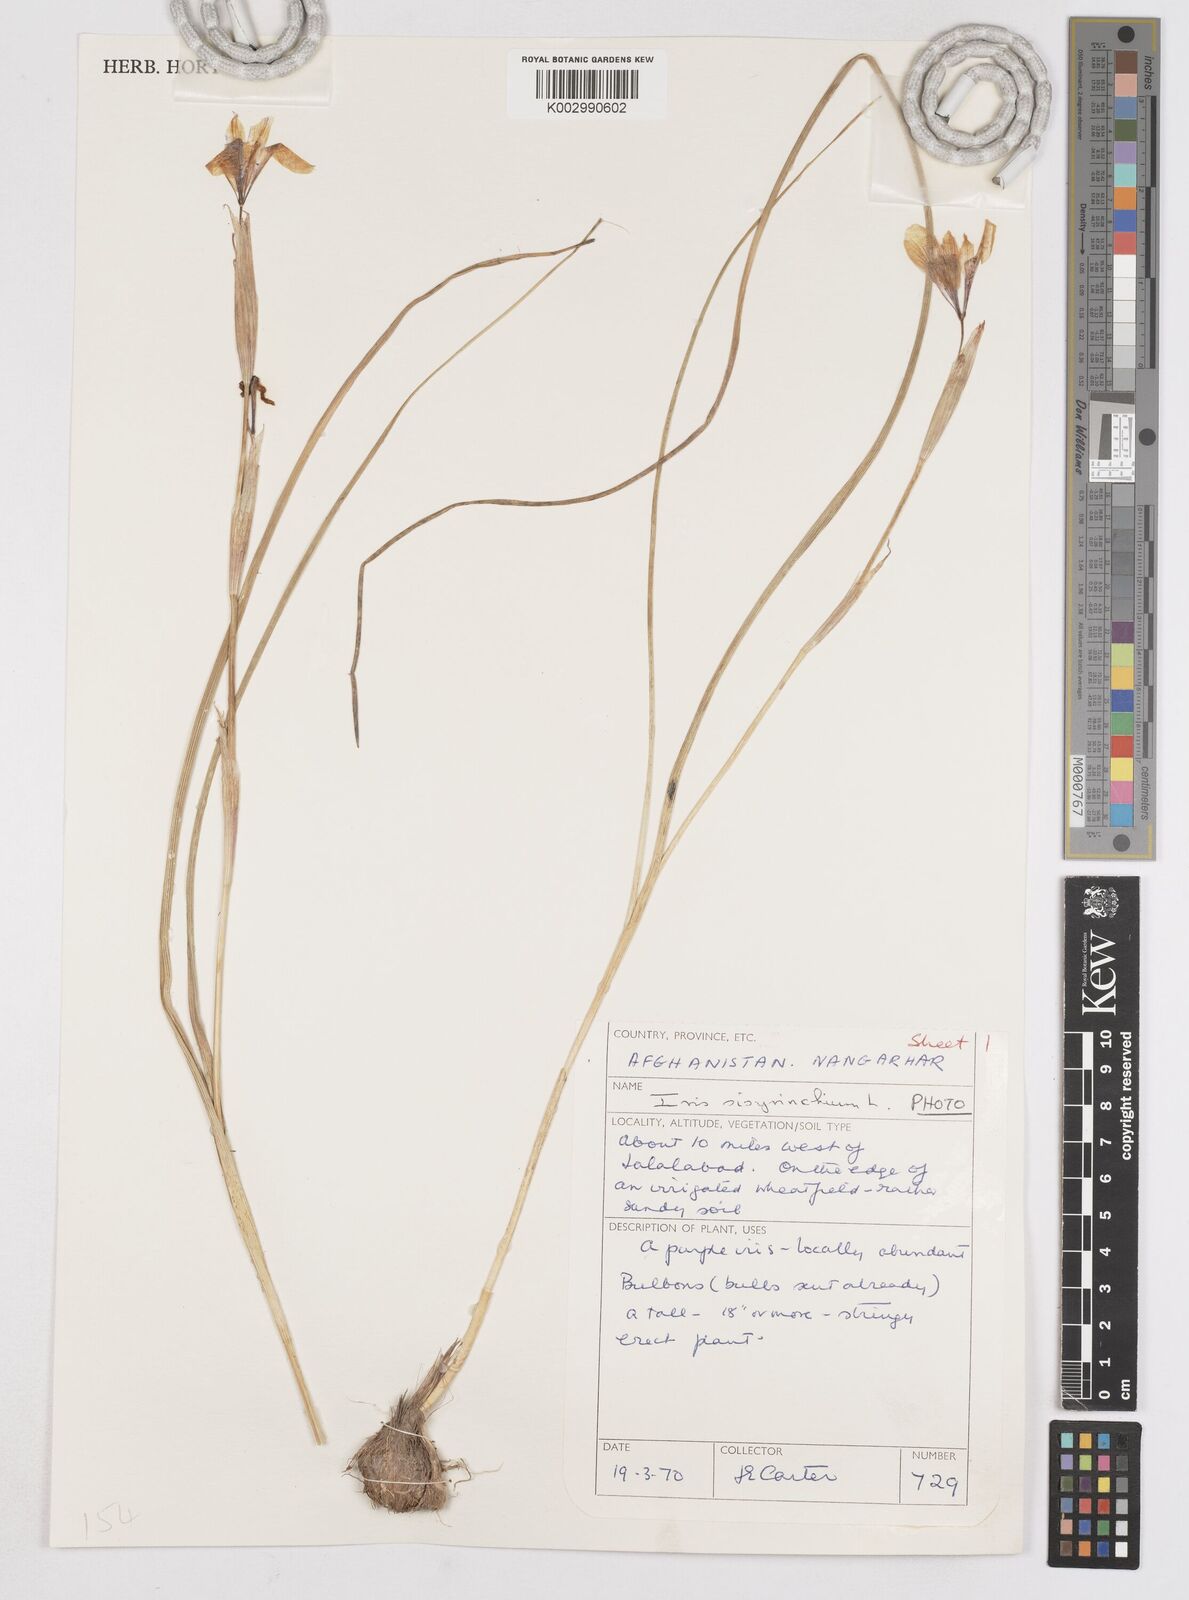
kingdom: Plantae
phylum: Tracheophyta
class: Liliopsida
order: Asparagales
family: Iridaceae
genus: Moraea
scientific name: Moraea sisyrinchium
